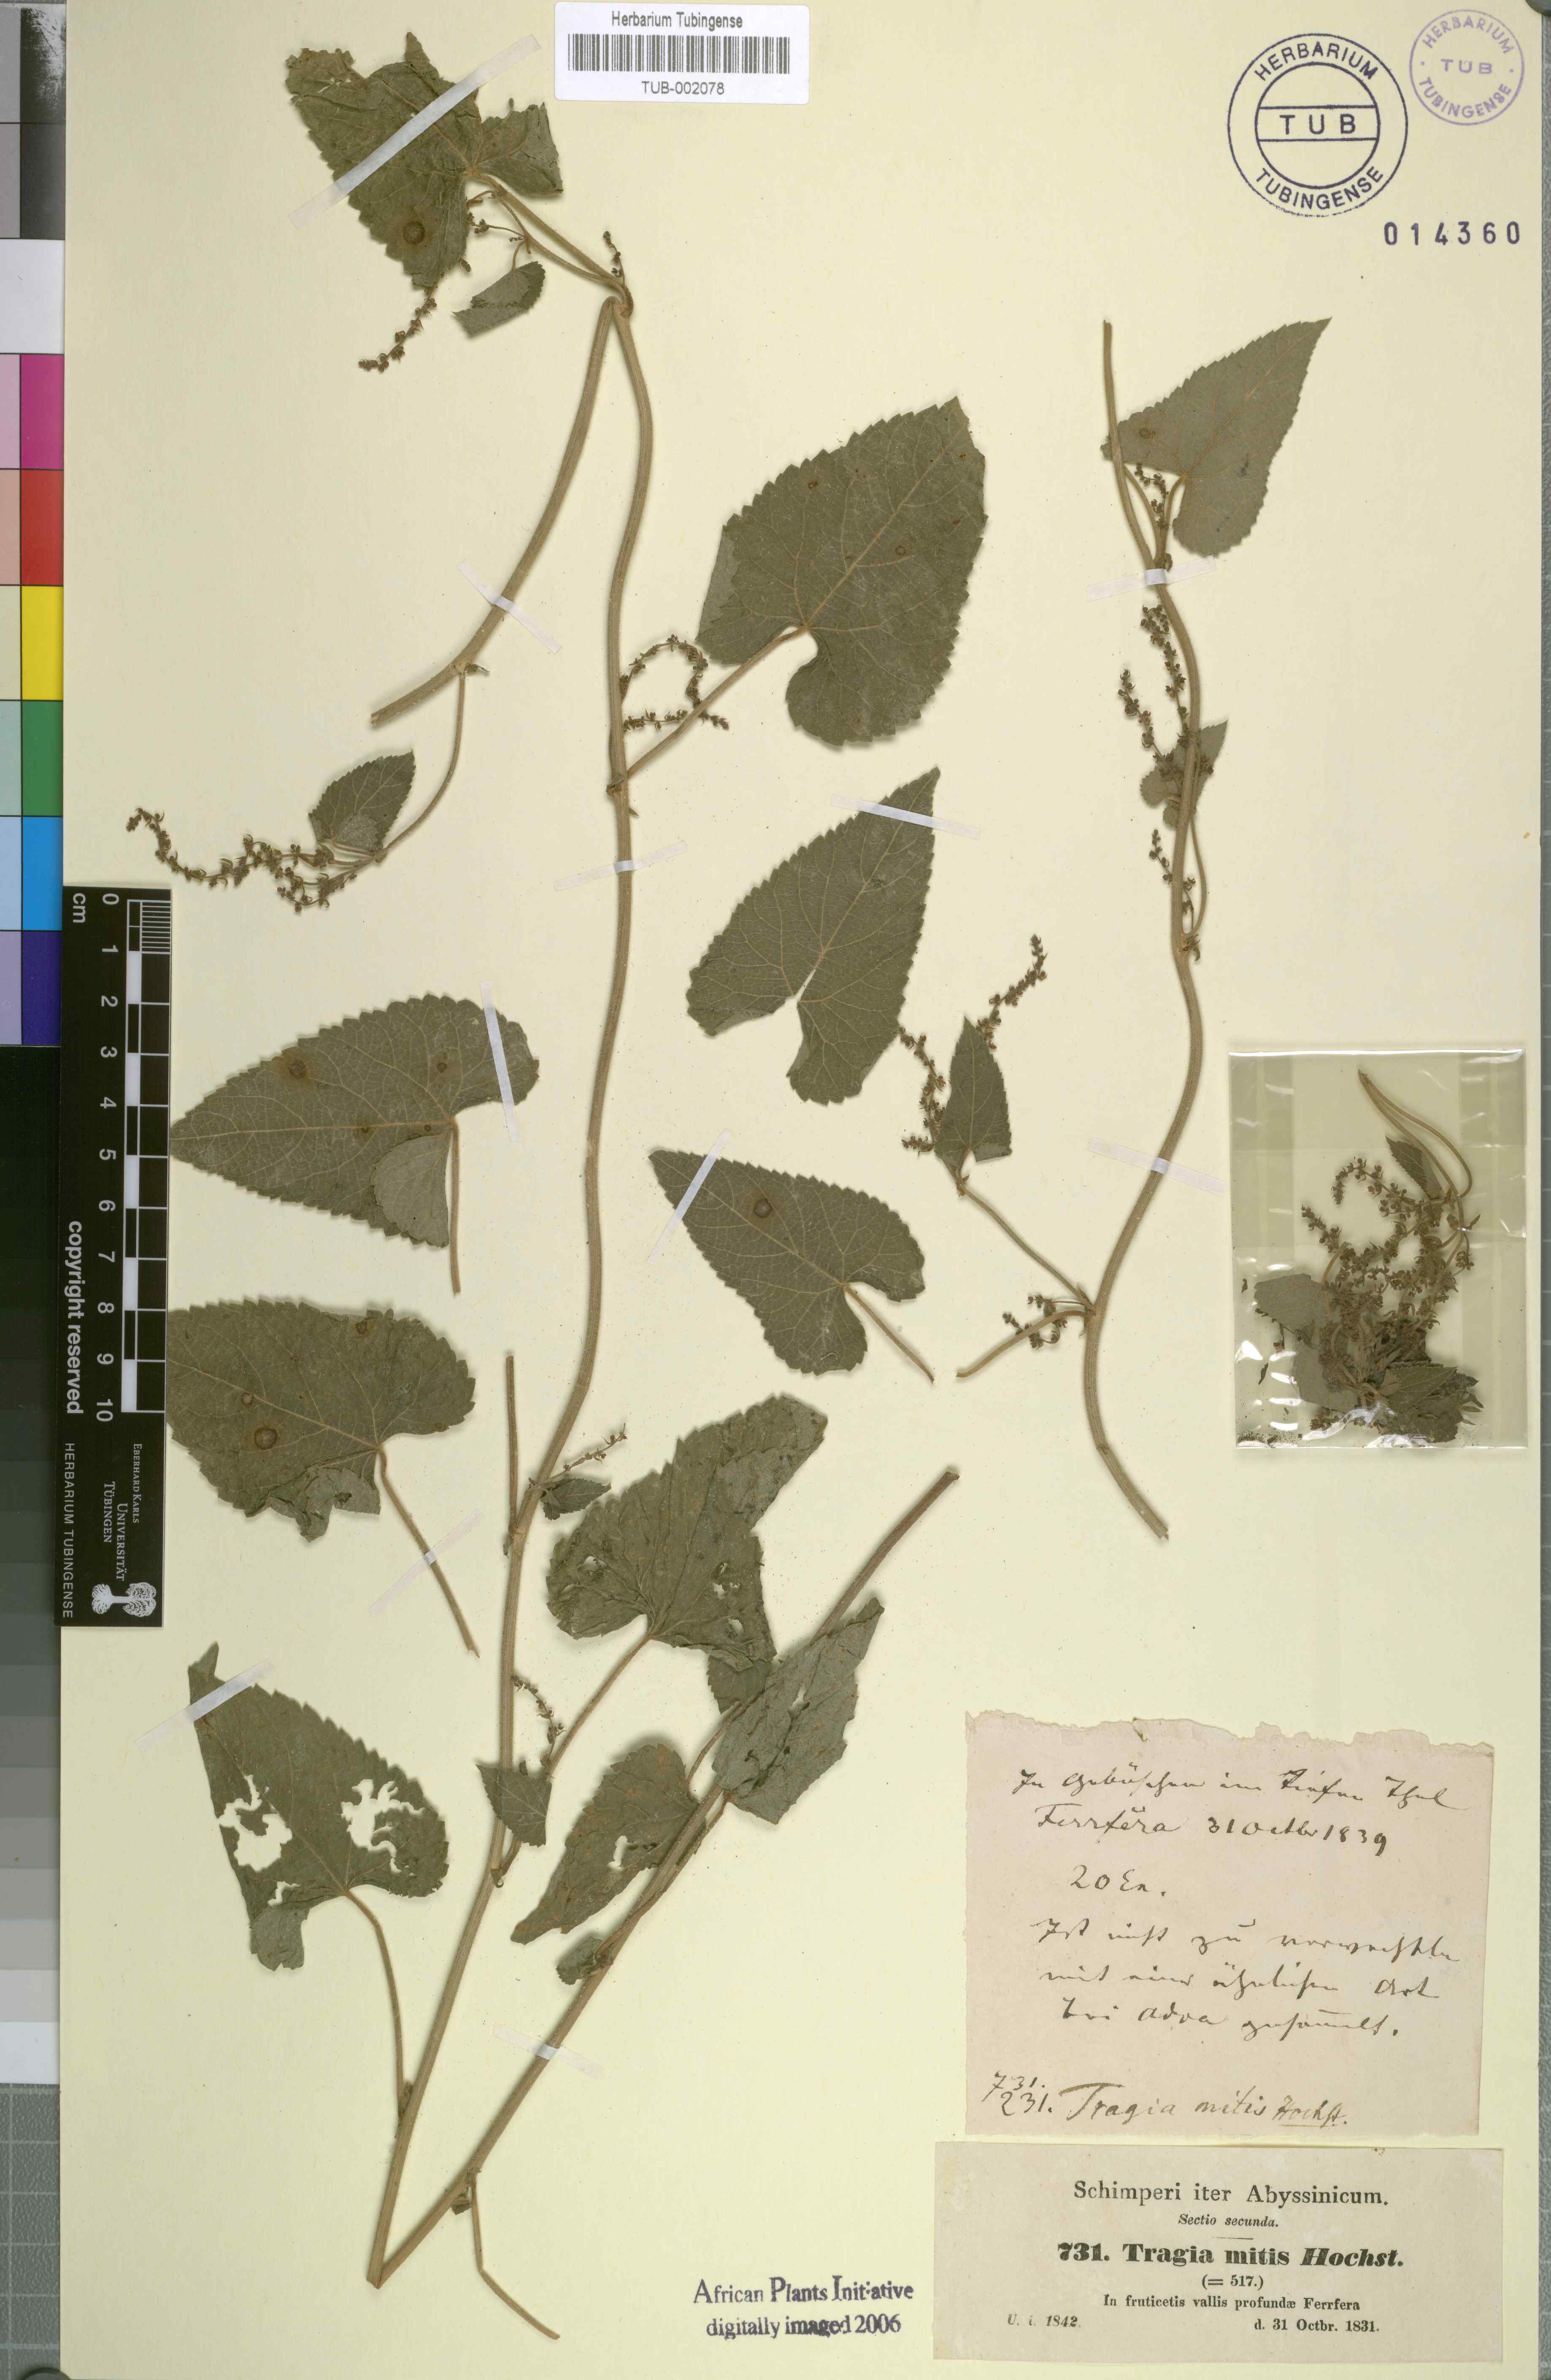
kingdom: Plantae
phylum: Tracheophyta
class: Magnoliopsida
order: Malpighiales
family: Euphorbiaceae
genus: Tragia
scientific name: Tragia mitis
